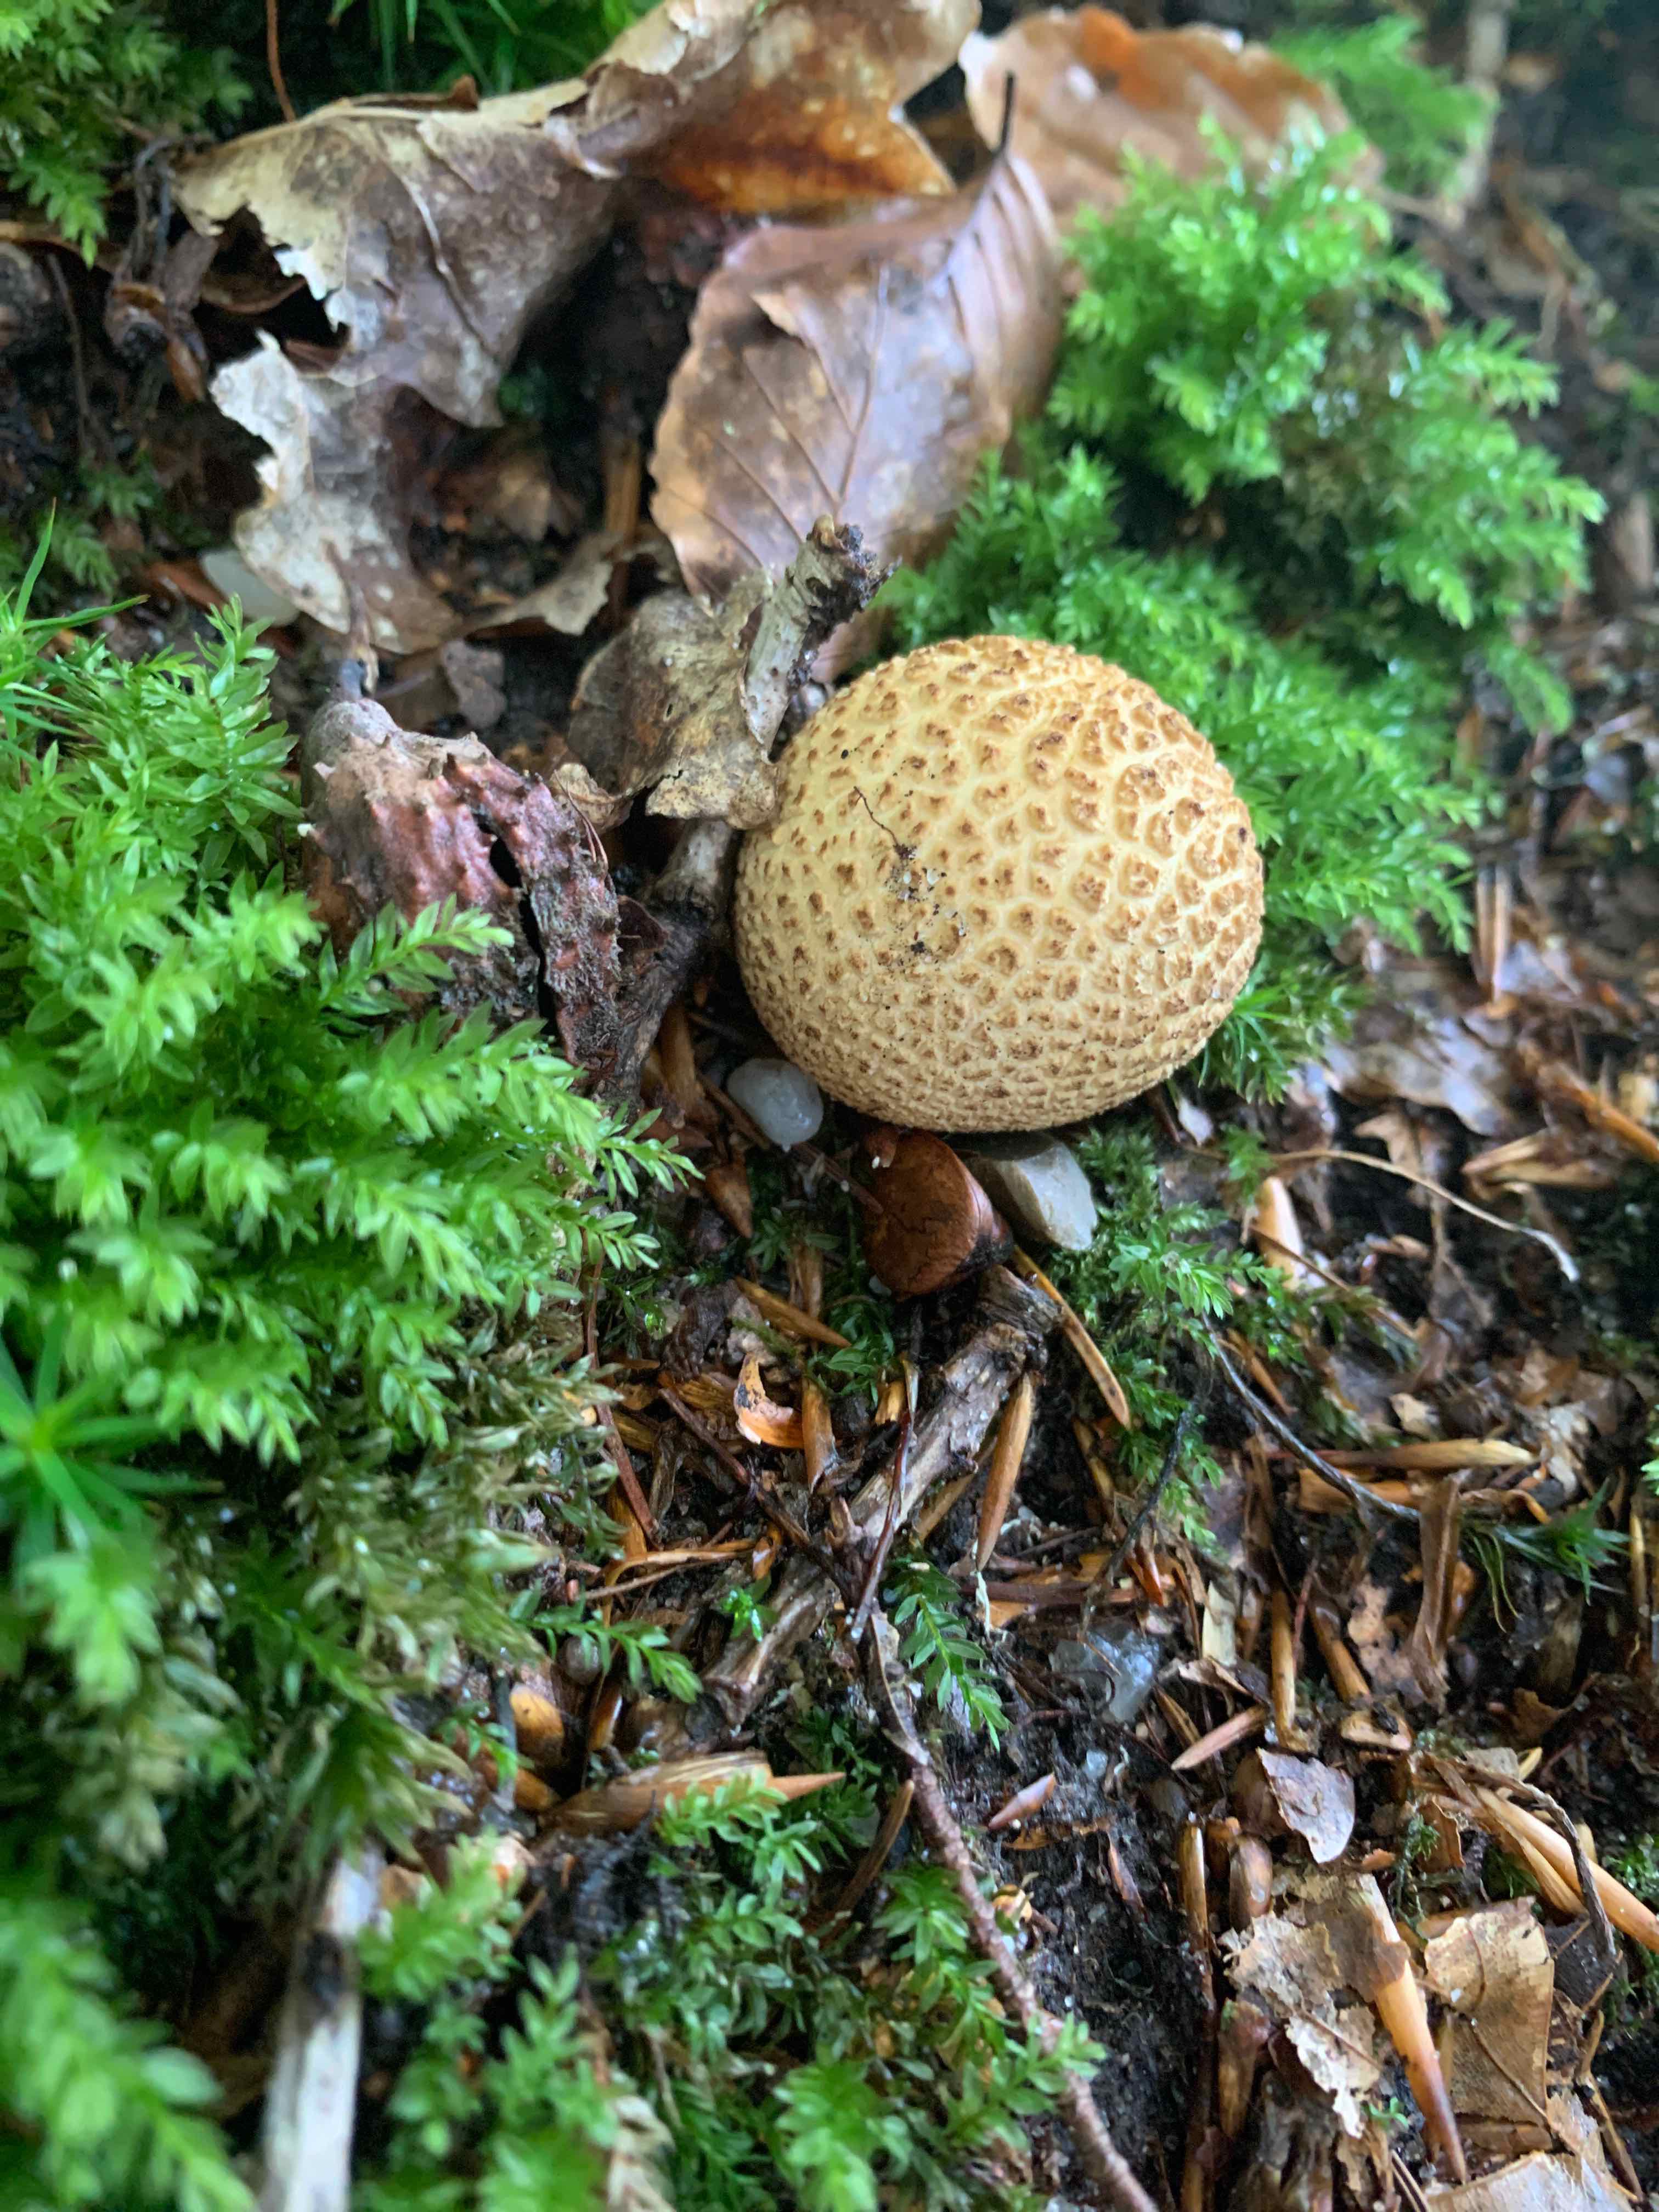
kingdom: Fungi
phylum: Basidiomycota
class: Agaricomycetes
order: Boletales
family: Sclerodermataceae
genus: Scleroderma
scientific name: Scleroderma citrinum
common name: almindelig bruskbold
